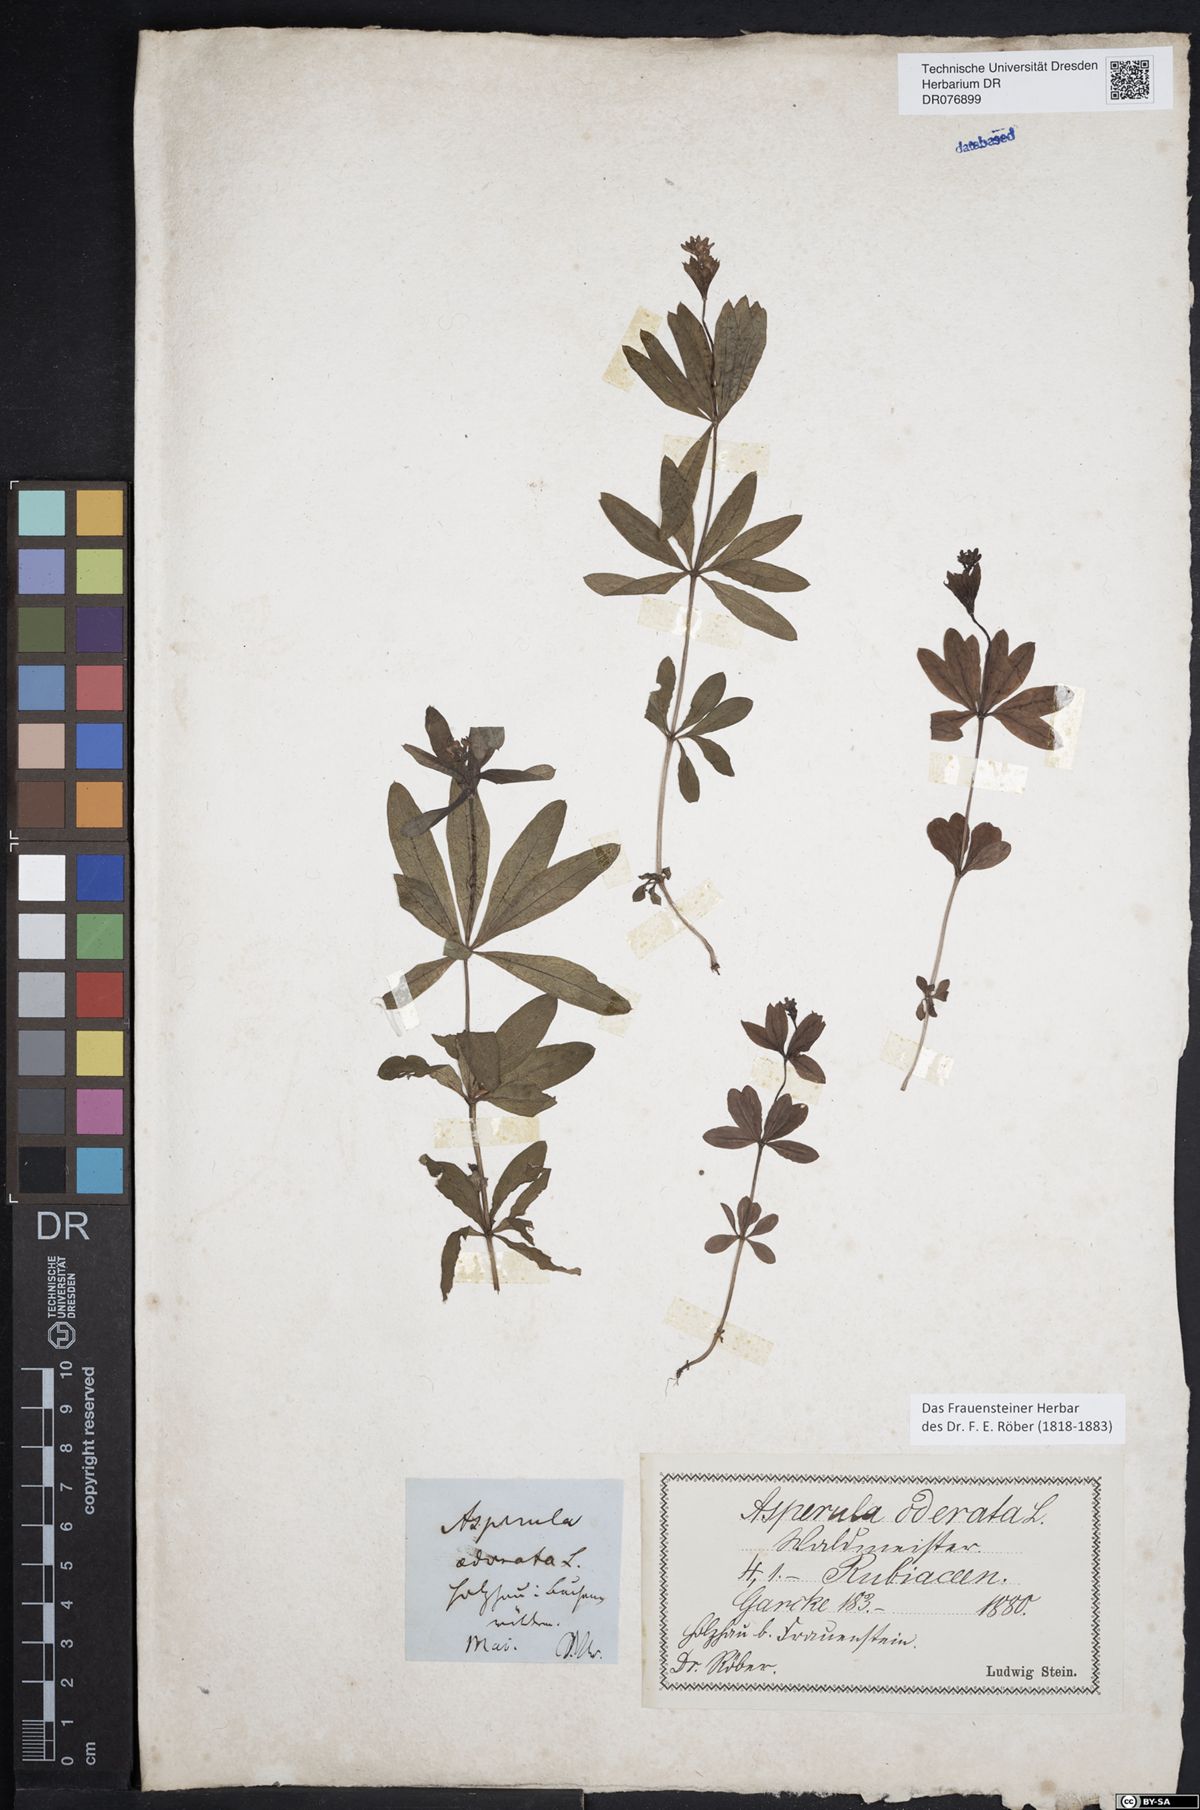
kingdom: Plantae
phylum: Tracheophyta
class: Magnoliopsida
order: Gentianales
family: Rubiaceae
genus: Galium
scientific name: Galium odoratum
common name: Sweet woodruff
